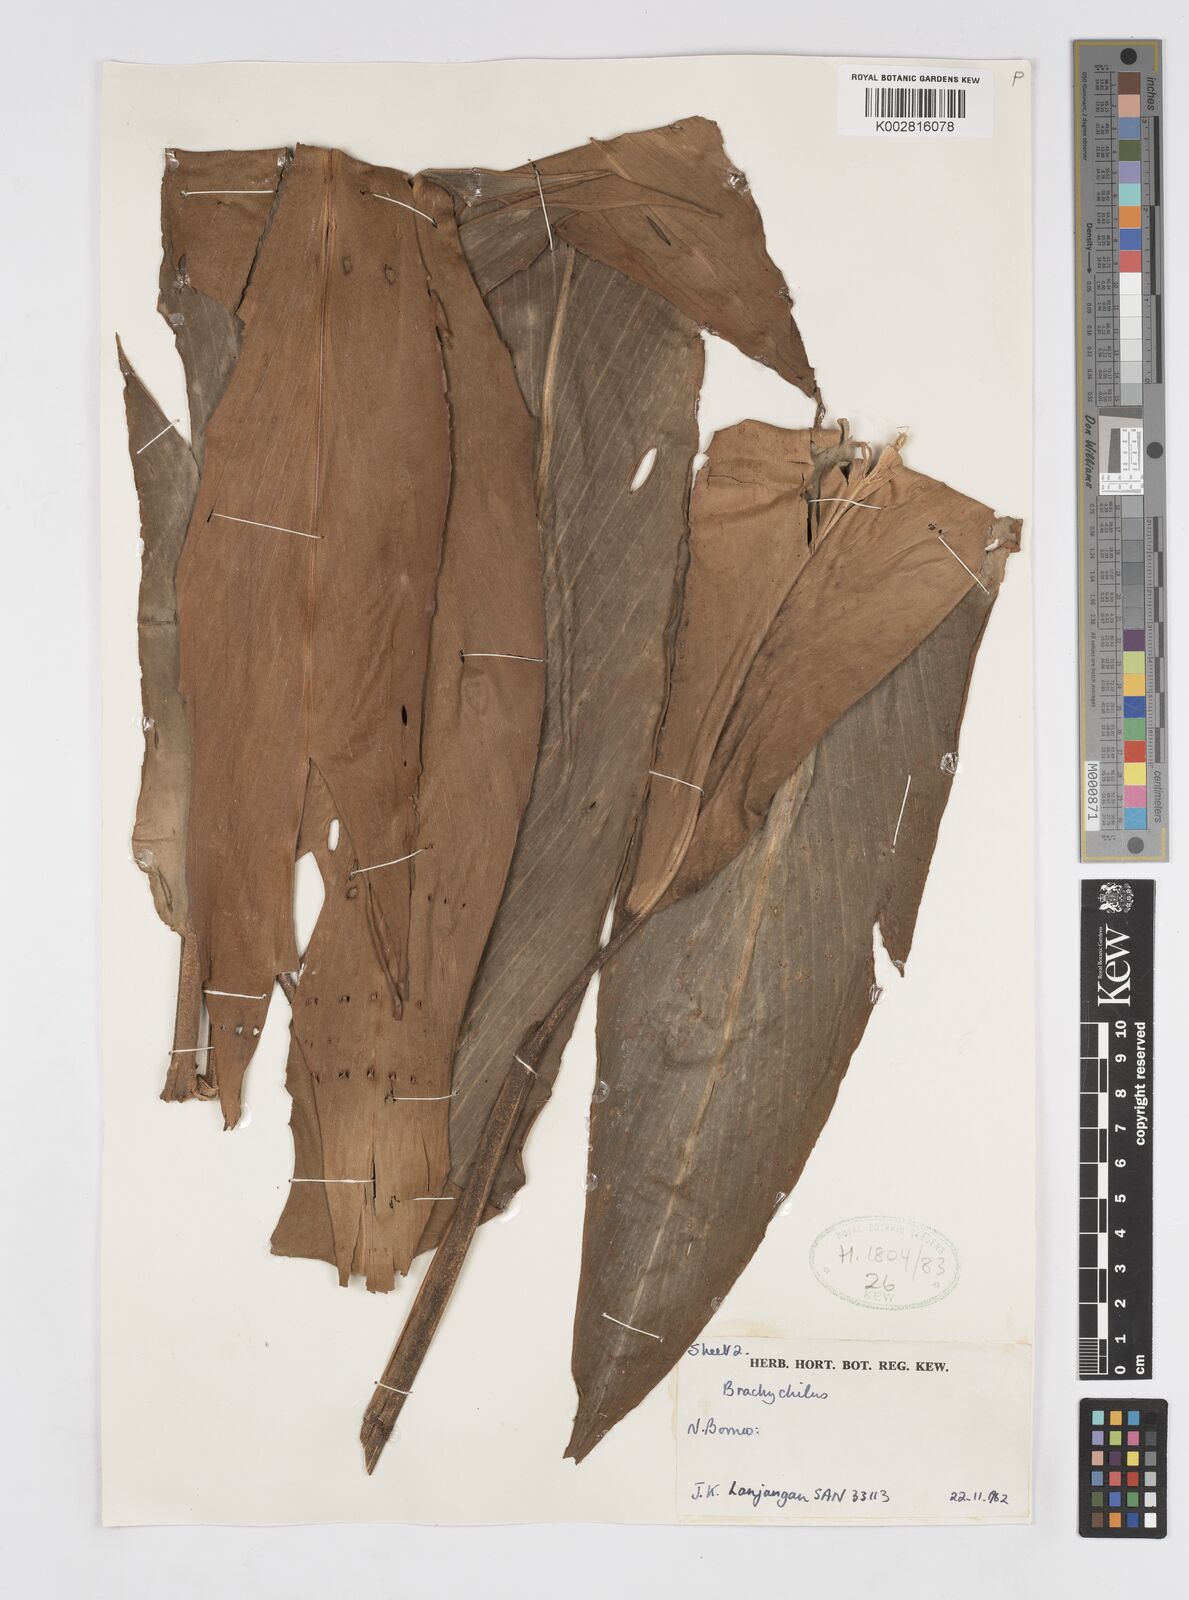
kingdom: Plantae
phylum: Tracheophyta
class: Liliopsida
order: Zingiberales
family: Zingiberaceae
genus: Alpinia
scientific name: Alpinia
